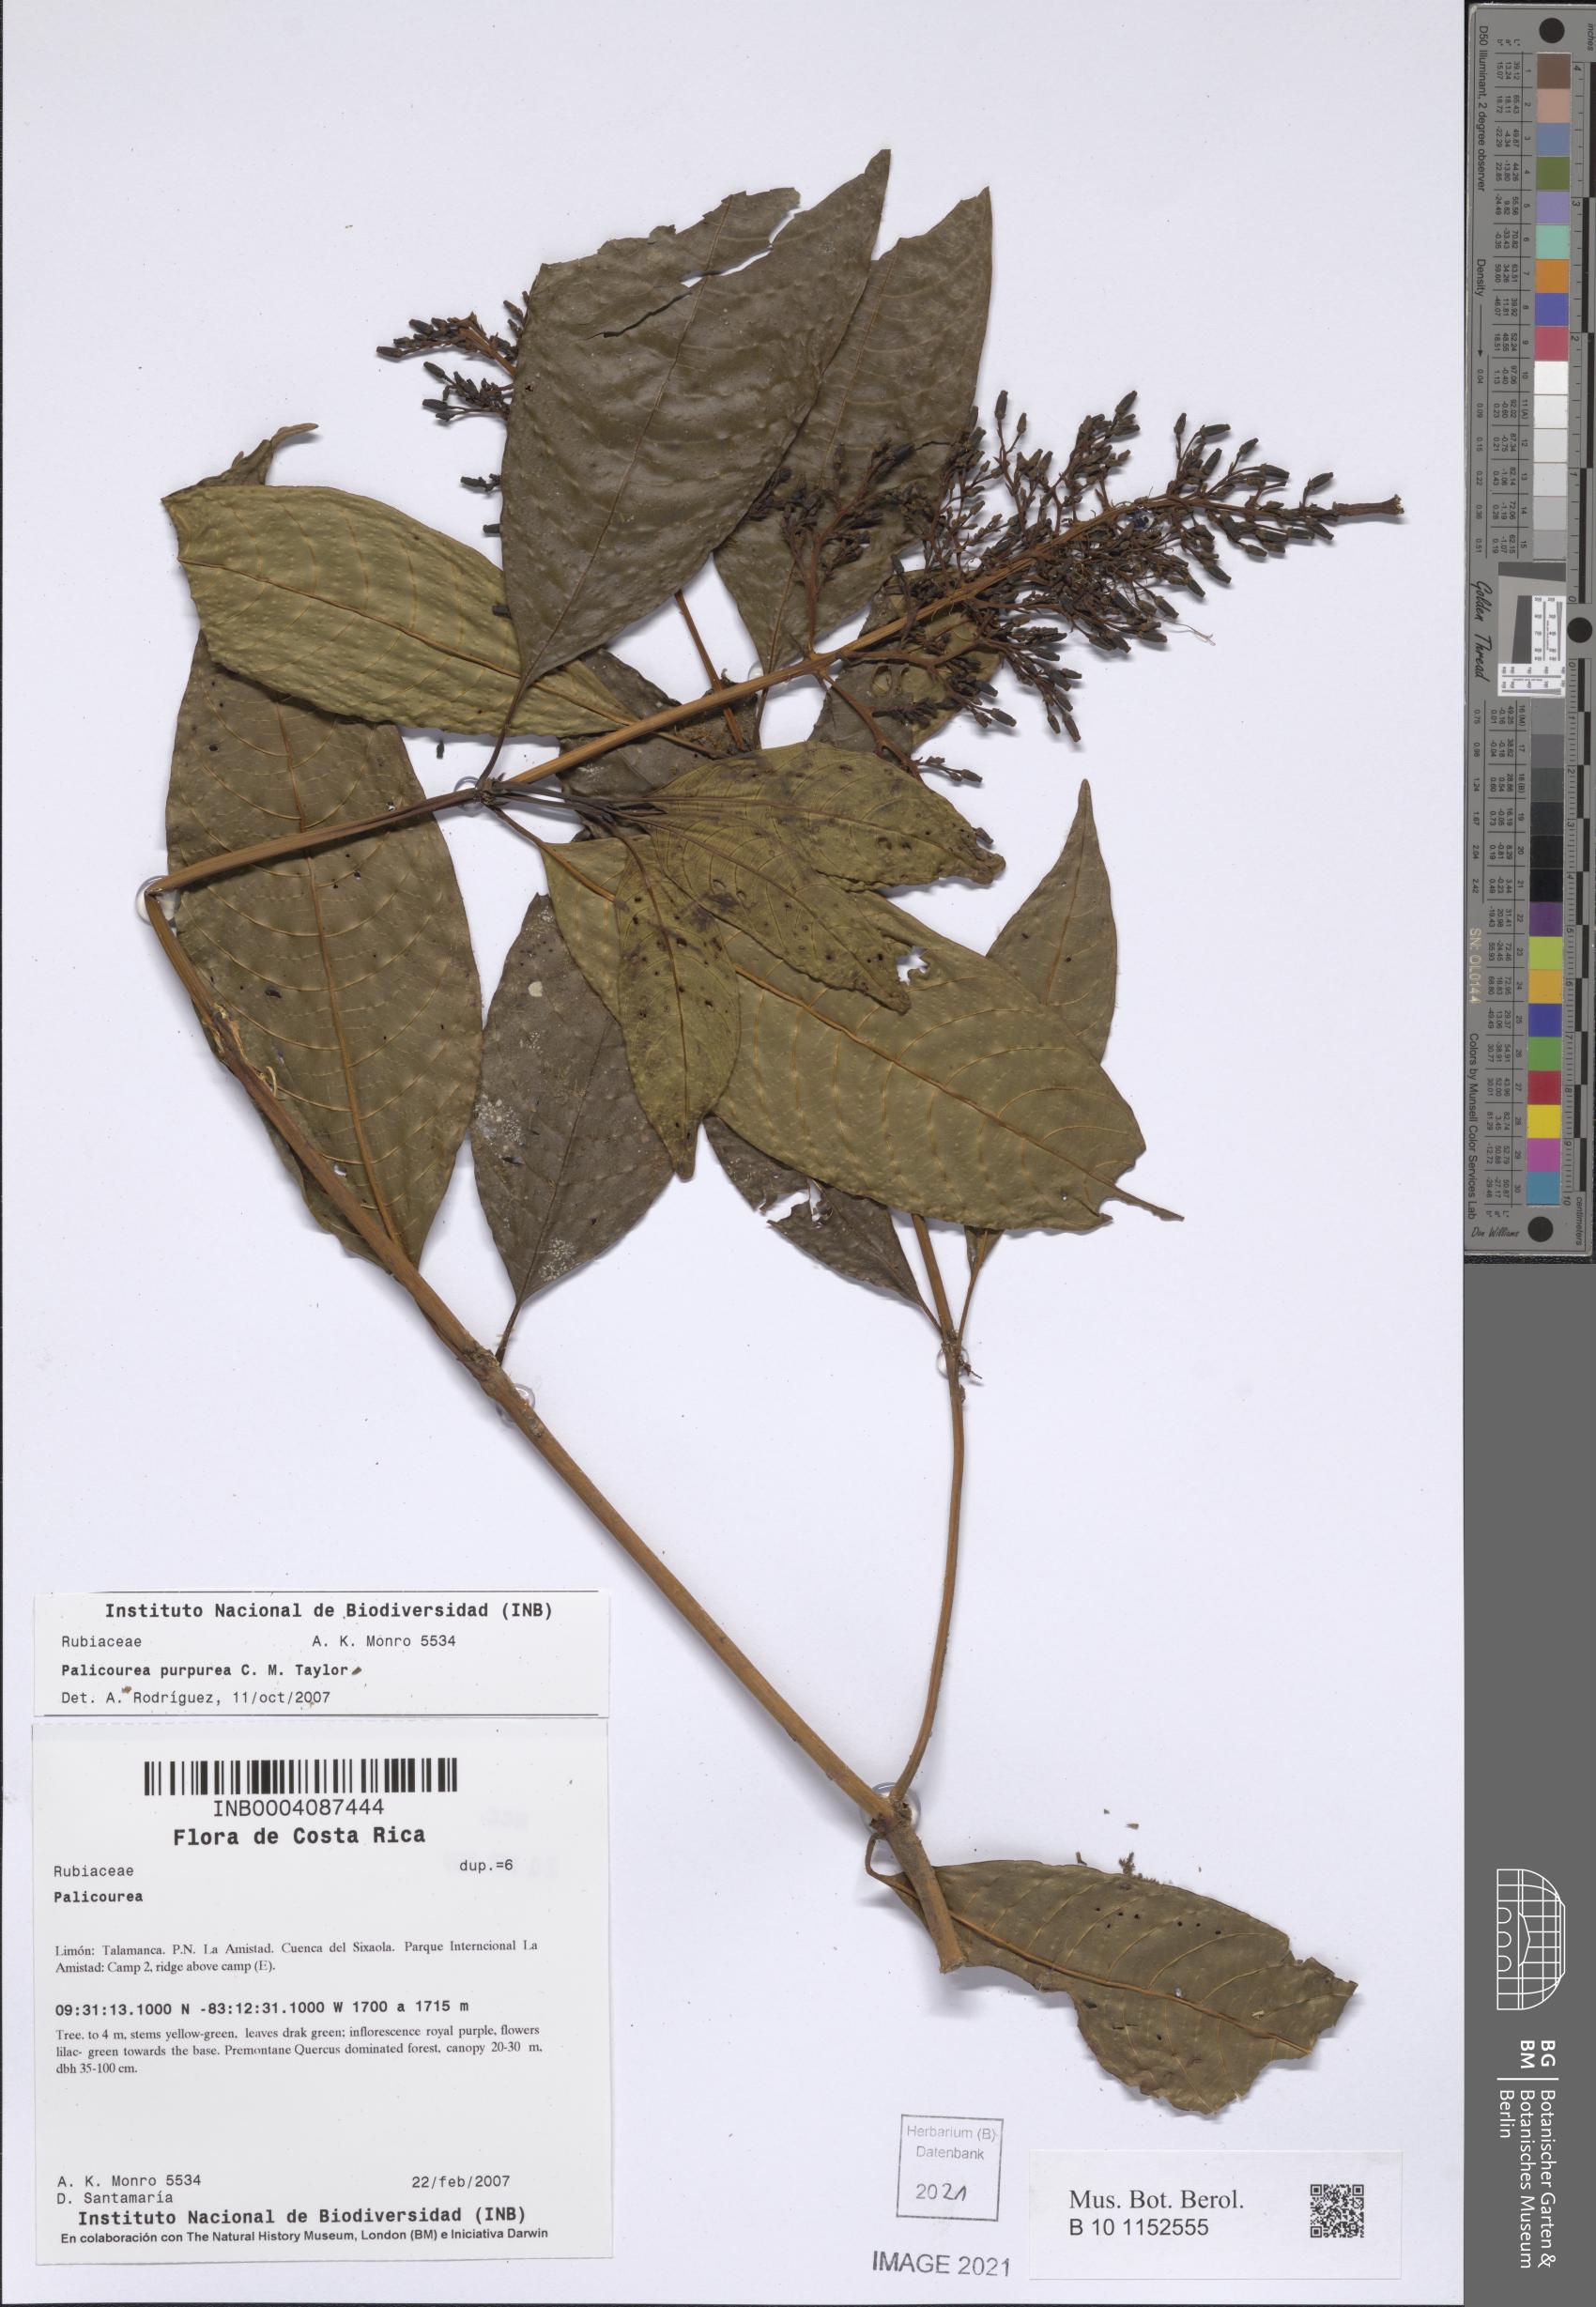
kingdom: Plantae
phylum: Tracheophyta
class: Magnoliopsida
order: Gentianales
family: Rubiaceae
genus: Palicourea
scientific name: Palicourea purpurea
